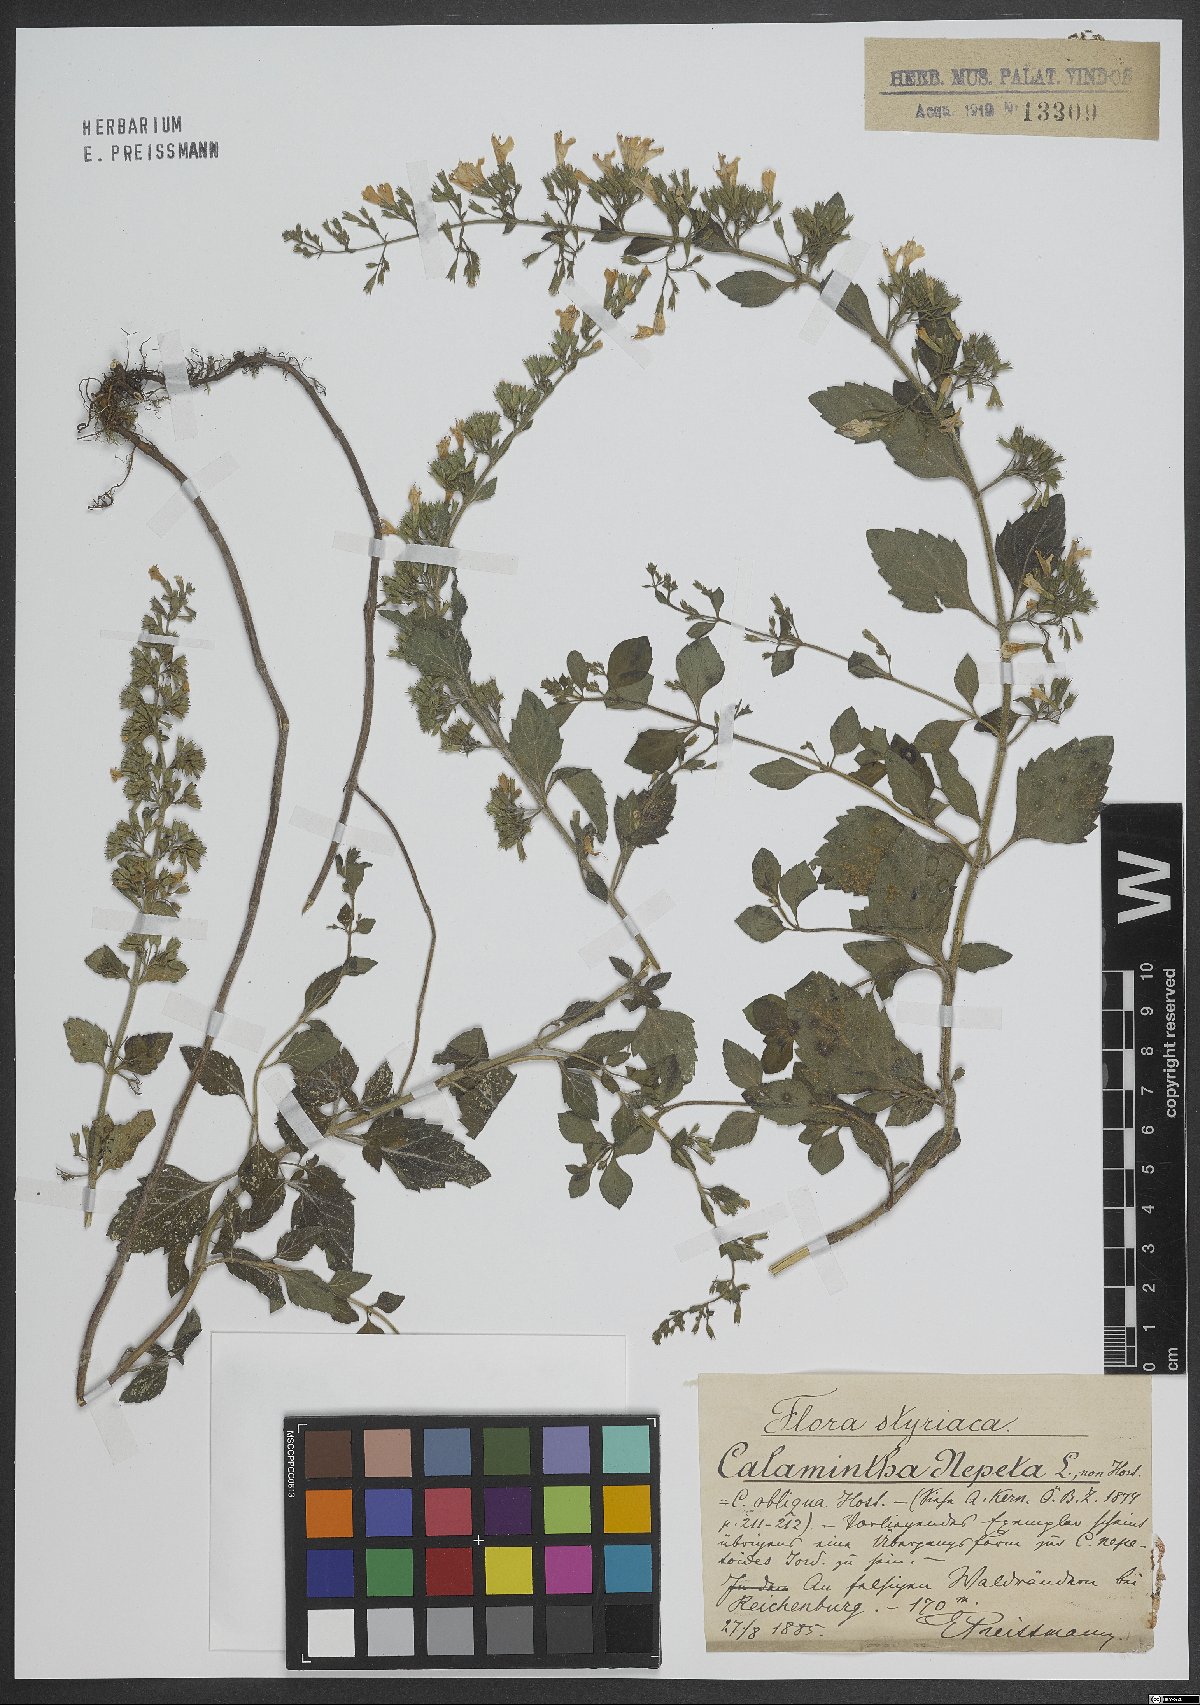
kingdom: Plantae
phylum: Tracheophyta
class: Magnoliopsida
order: Lamiales
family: Lamiaceae
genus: Clinopodium
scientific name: Clinopodium nepeta
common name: Lesser calamint
